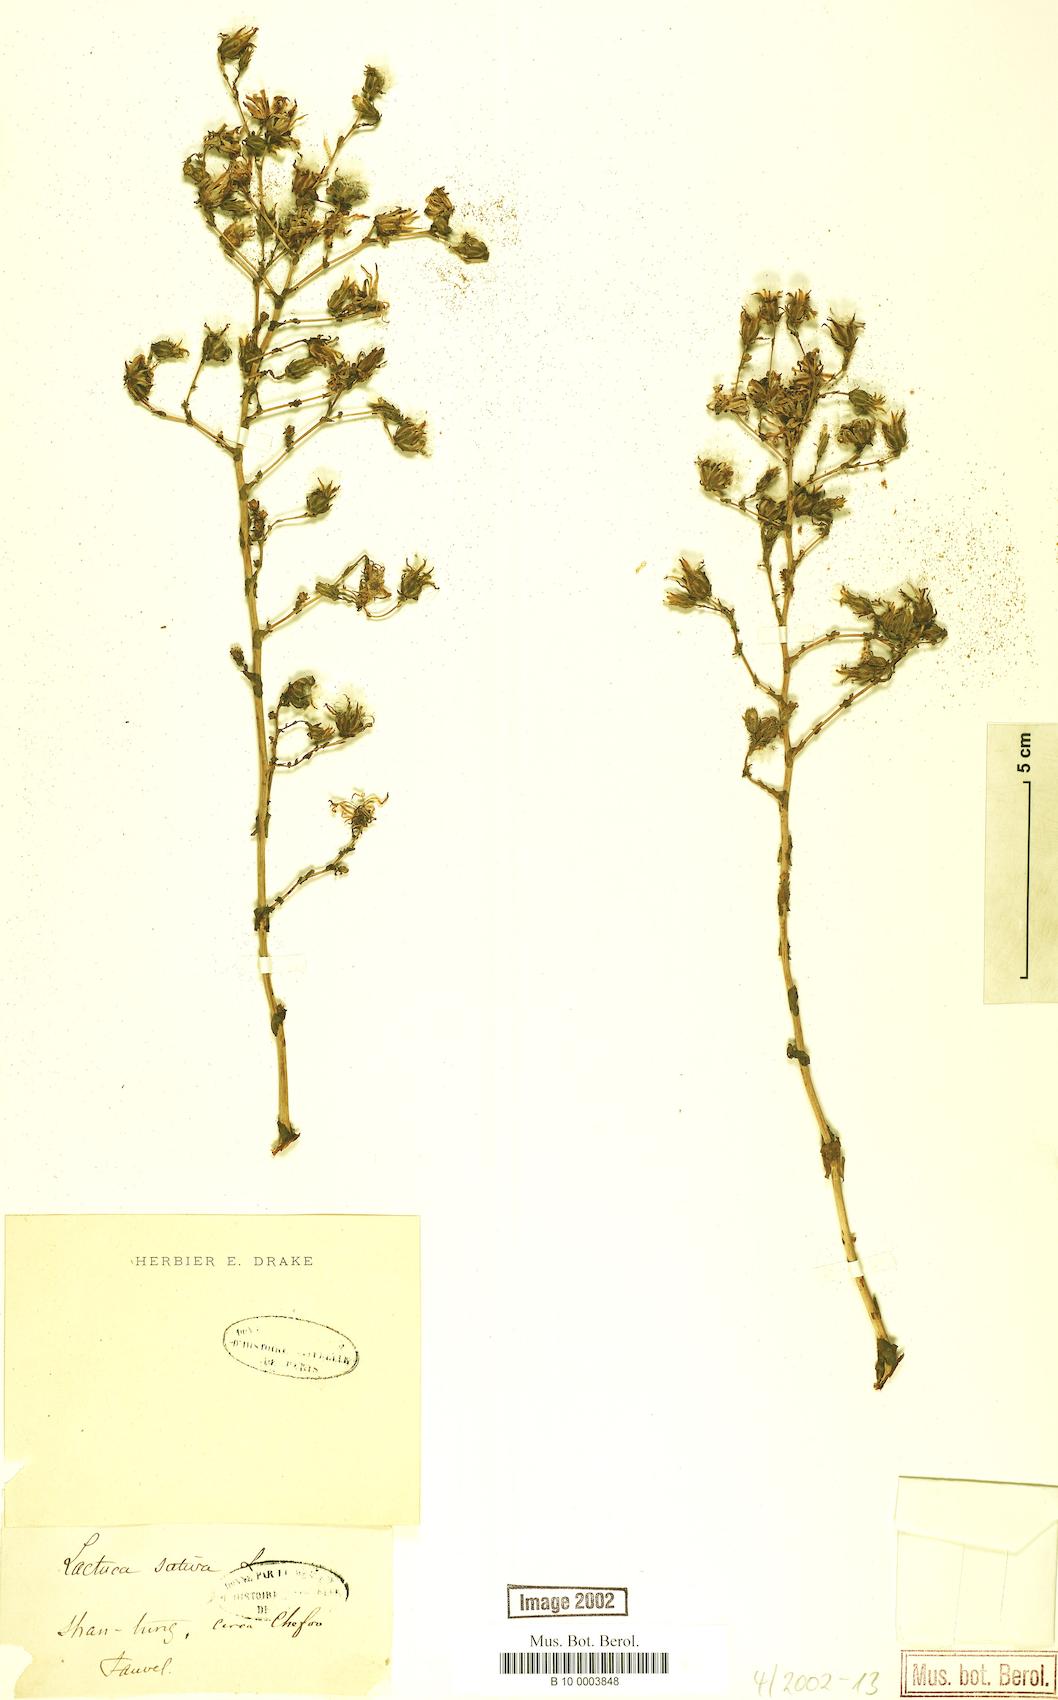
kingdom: Plantae
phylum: Tracheophyta
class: Magnoliopsida
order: Asterales
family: Asteraceae
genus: Lactuca
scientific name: Lactuca sativa
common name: Garden lettuce
